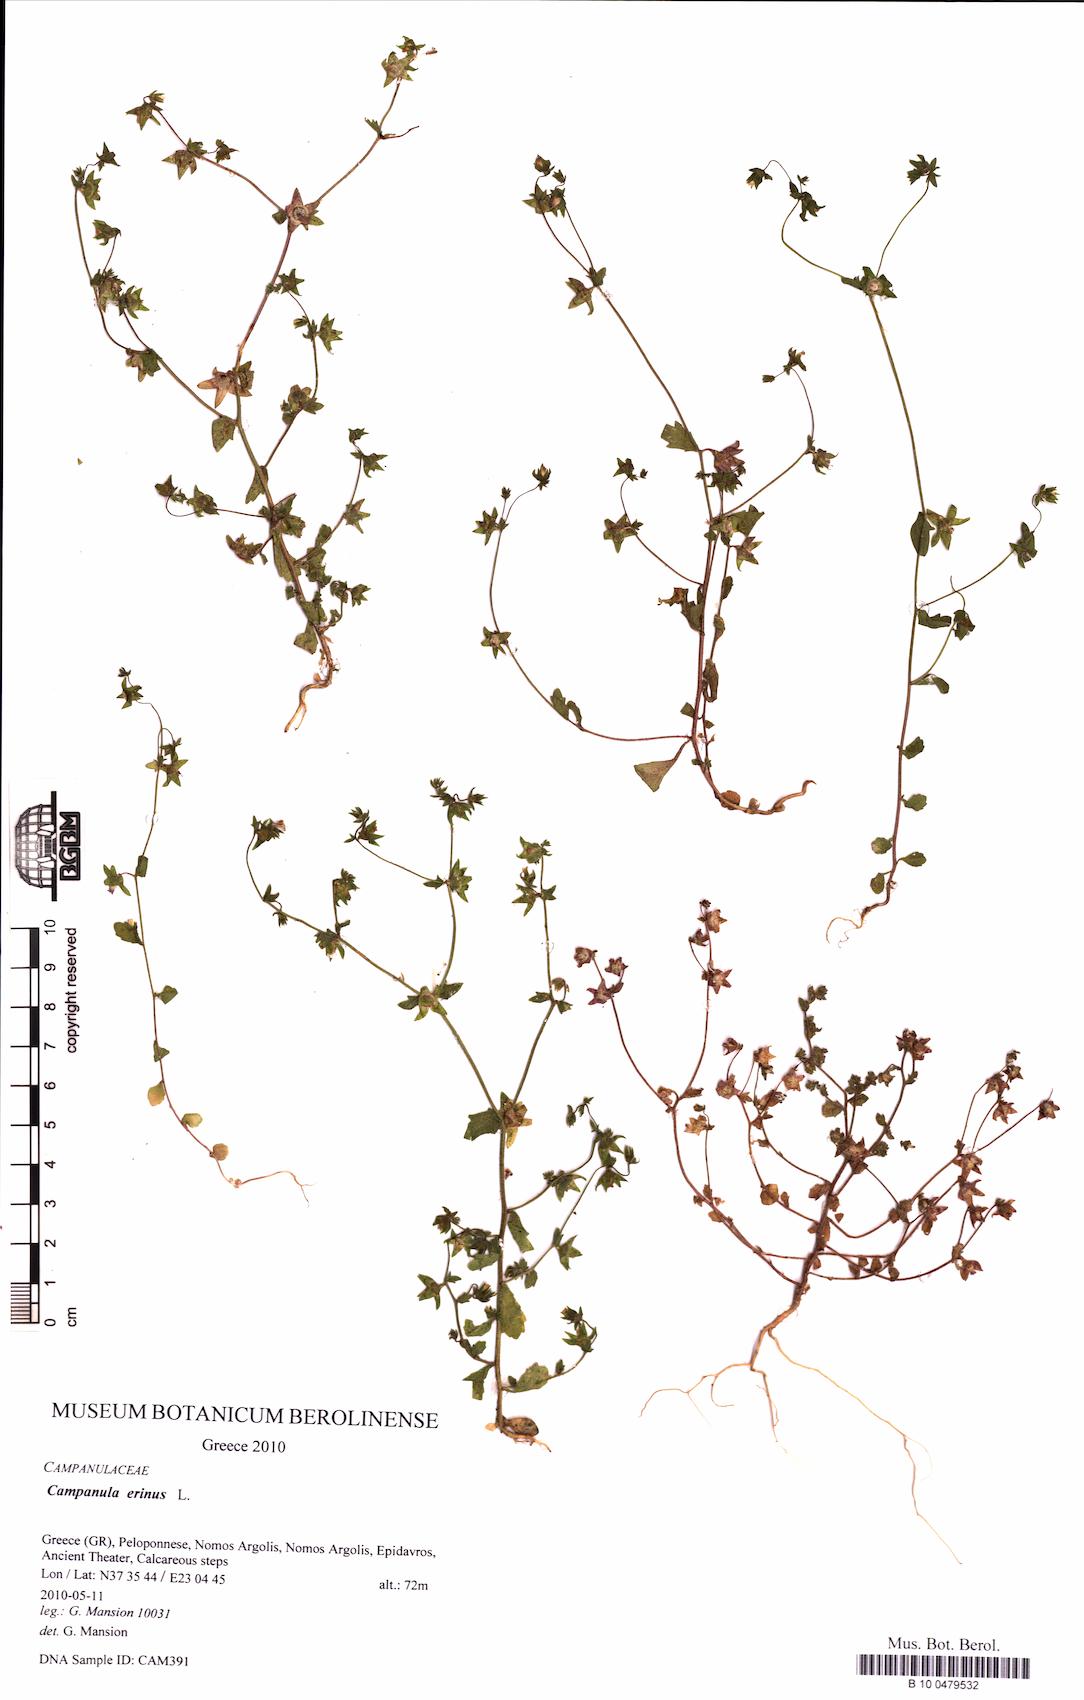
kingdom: Plantae
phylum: Tracheophyta
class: Magnoliopsida
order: Asterales
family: Campanulaceae
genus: Campanula
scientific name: Campanula erinus
